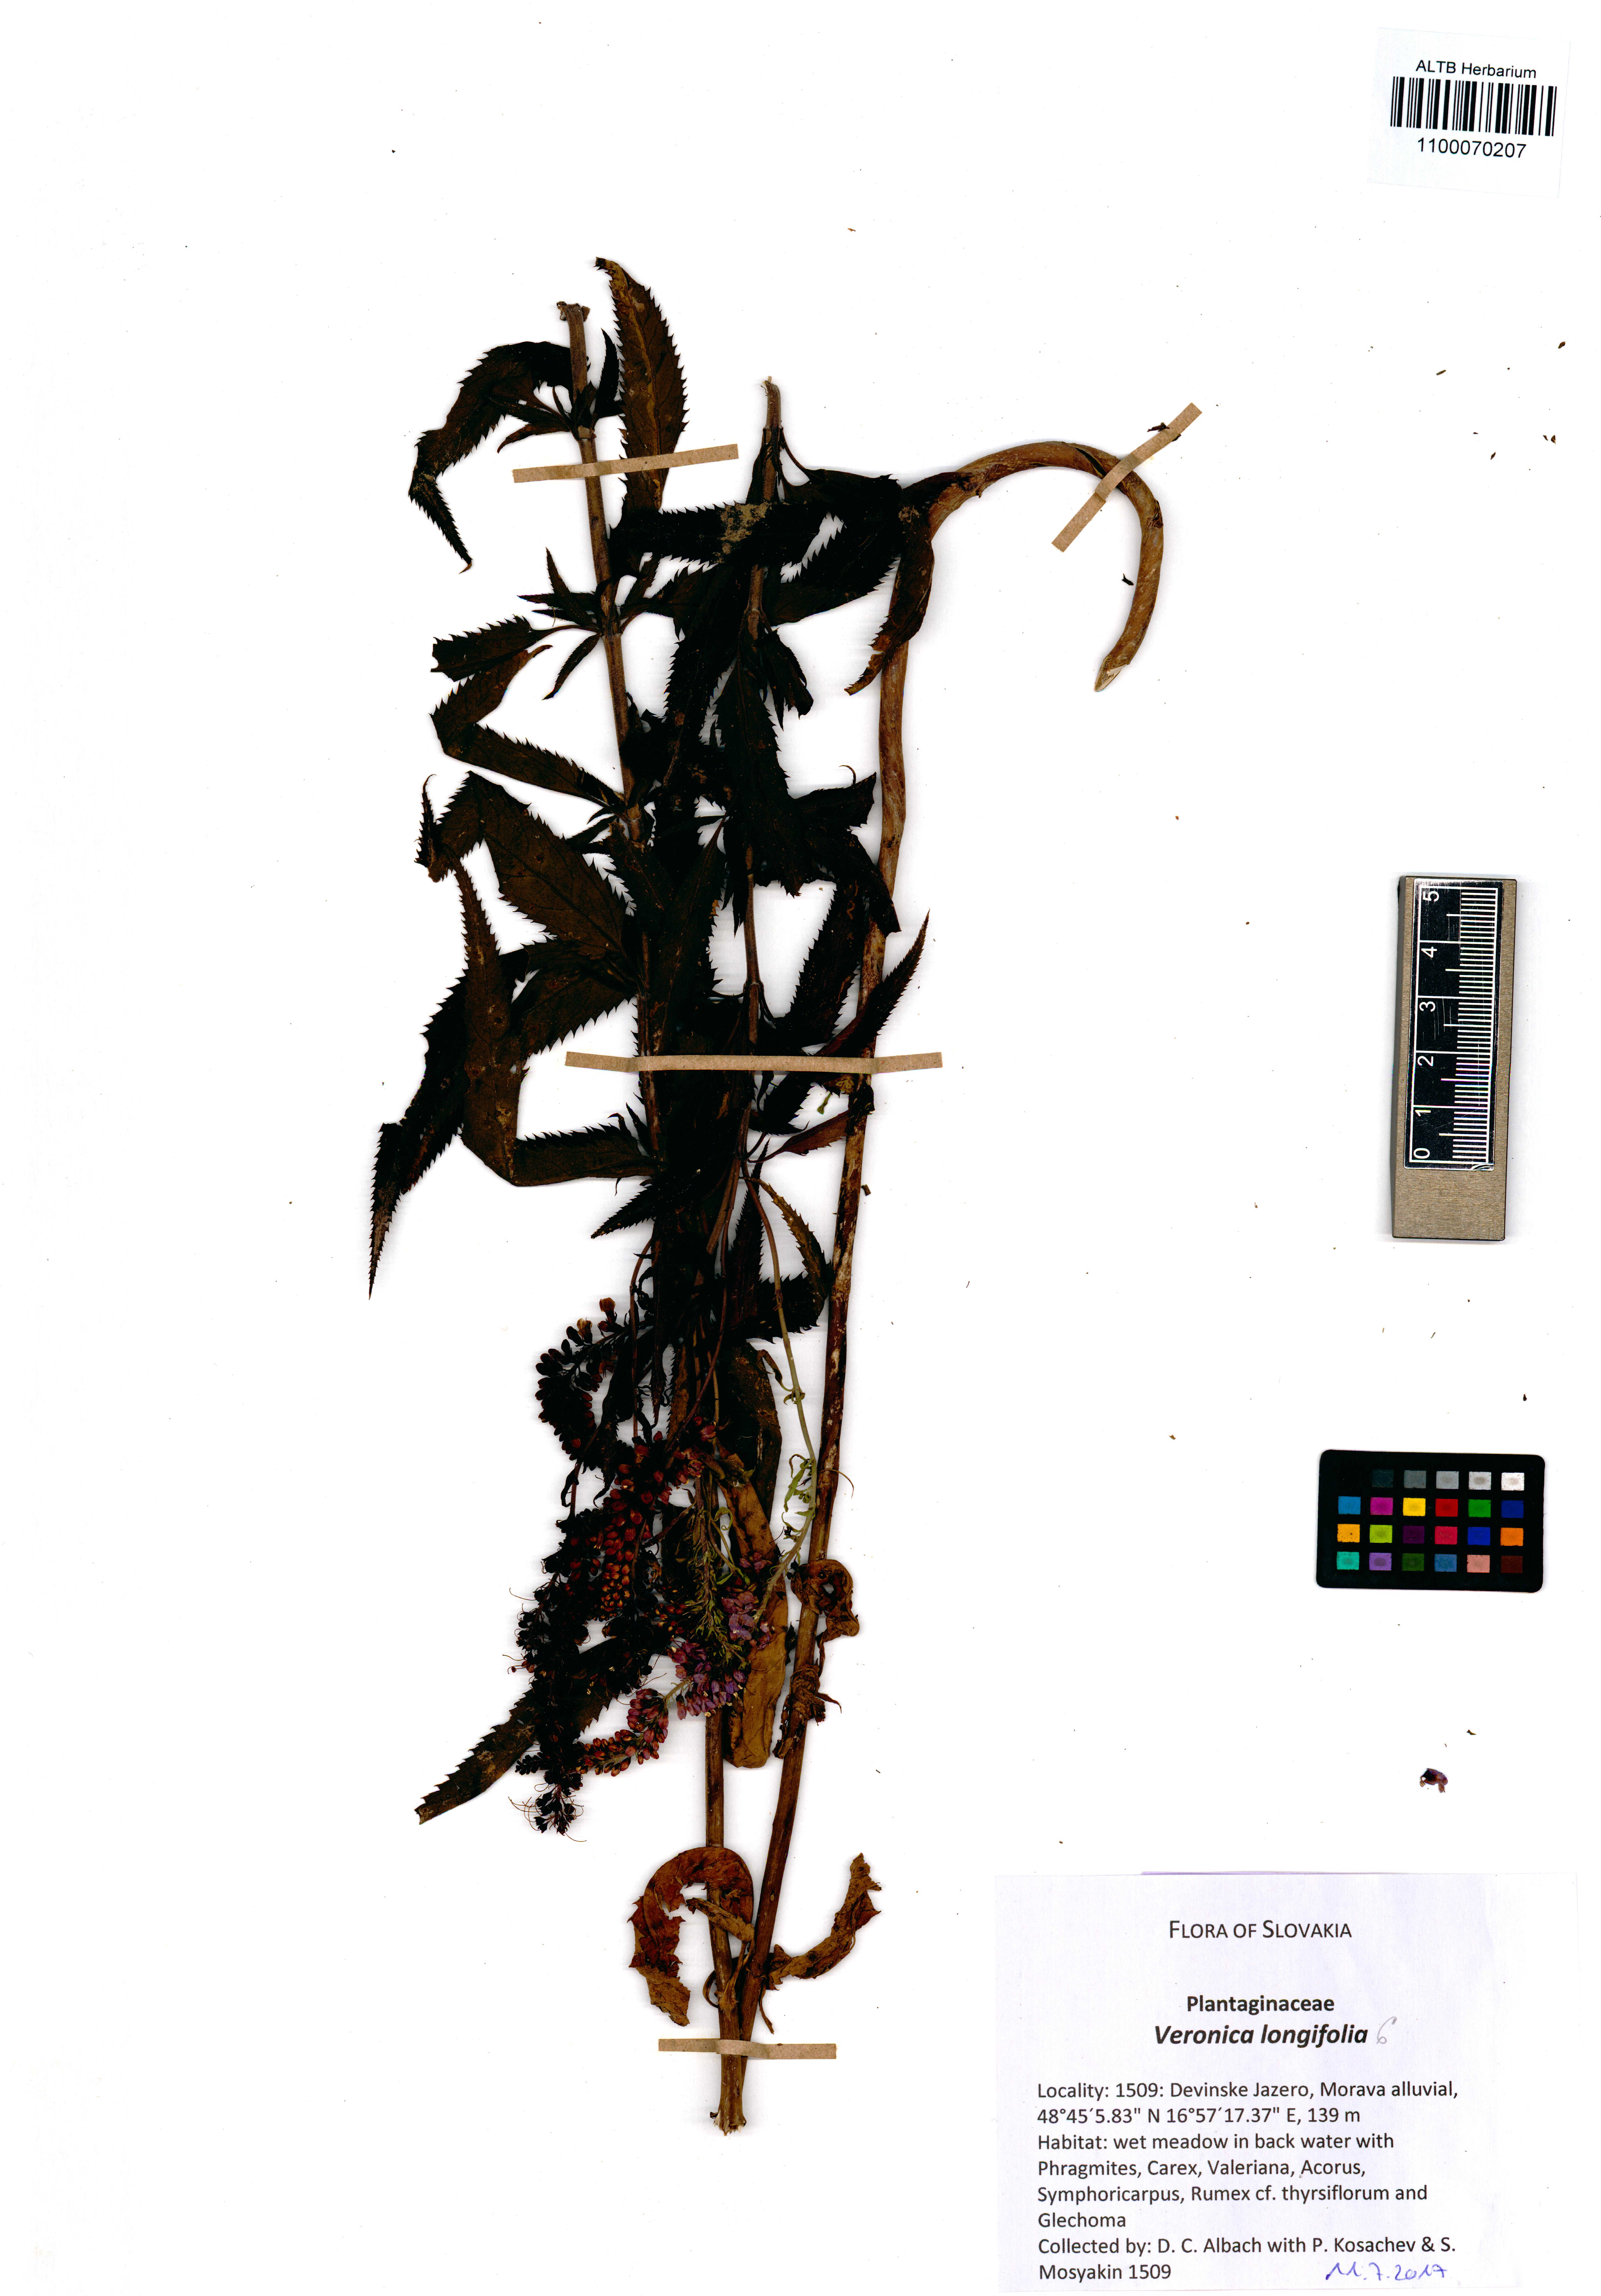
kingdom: Plantae
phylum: Tracheophyta
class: Magnoliopsida
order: Lamiales
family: Plantaginaceae
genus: Veronica
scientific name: Veronica longifolia
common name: Garden speedwell
